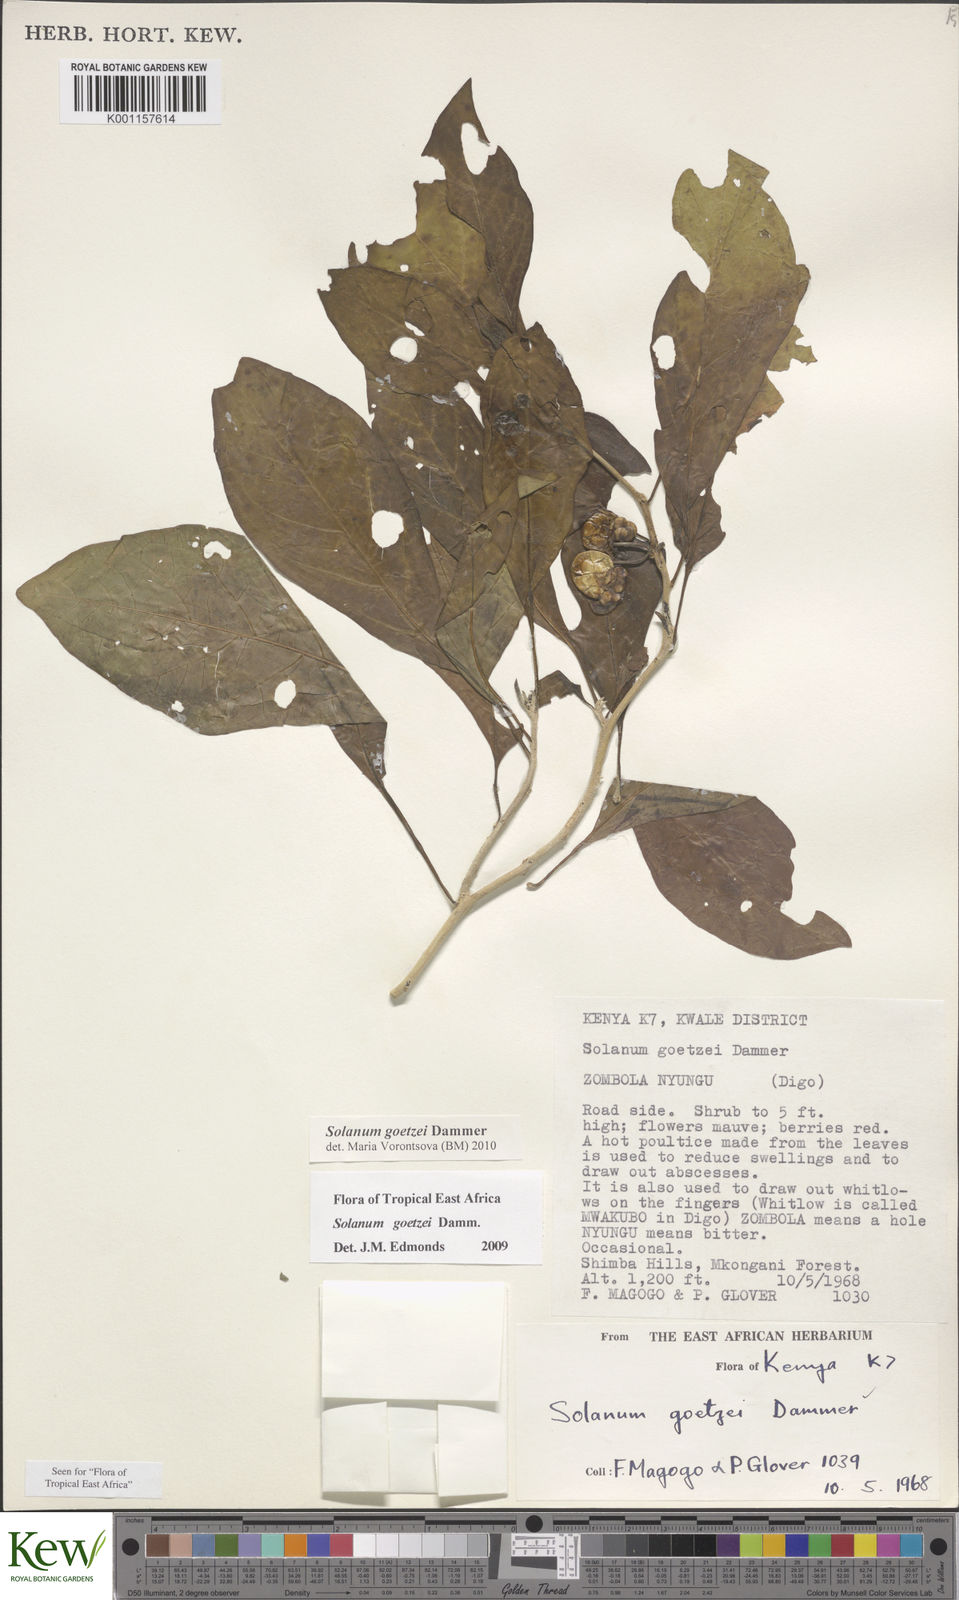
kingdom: Plantae
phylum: Tracheophyta
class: Magnoliopsida
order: Solanales
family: Solanaceae
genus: Solanum
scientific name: Solanum goetzei
